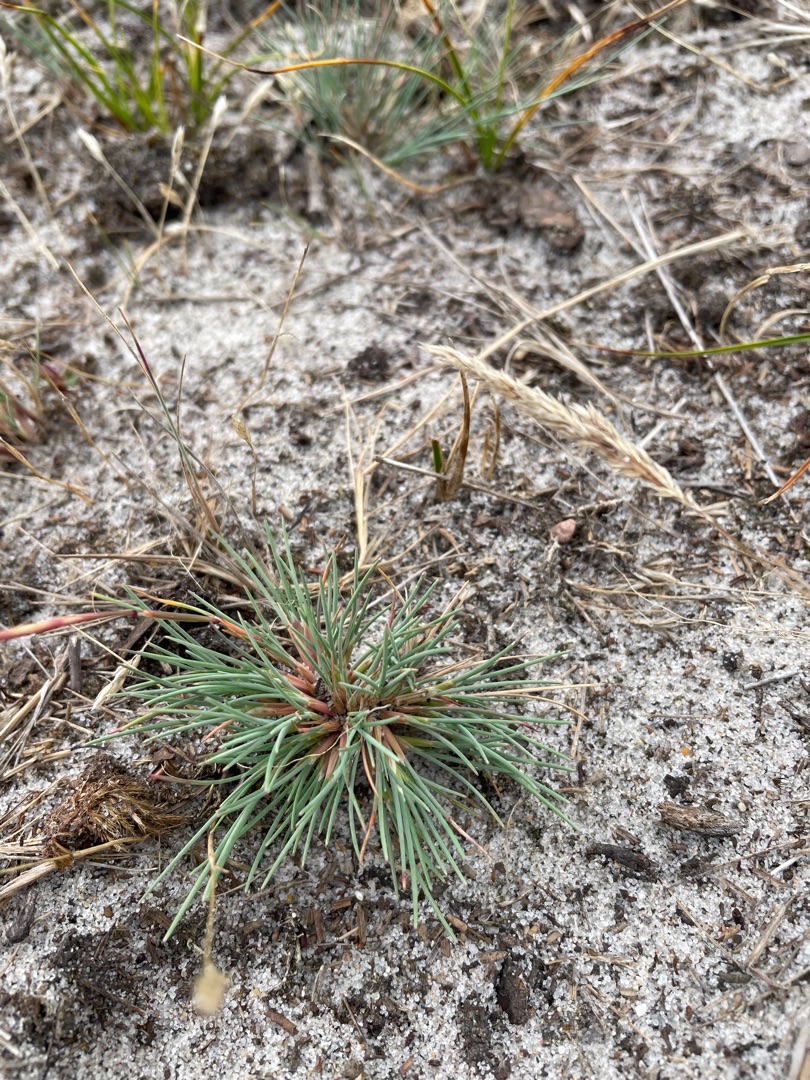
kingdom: Plantae
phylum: Tracheophyta
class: Liliopsida
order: Poales
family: Poaceae
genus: Corynephorus
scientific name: Corynephorus canescens
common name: Sandskæg
